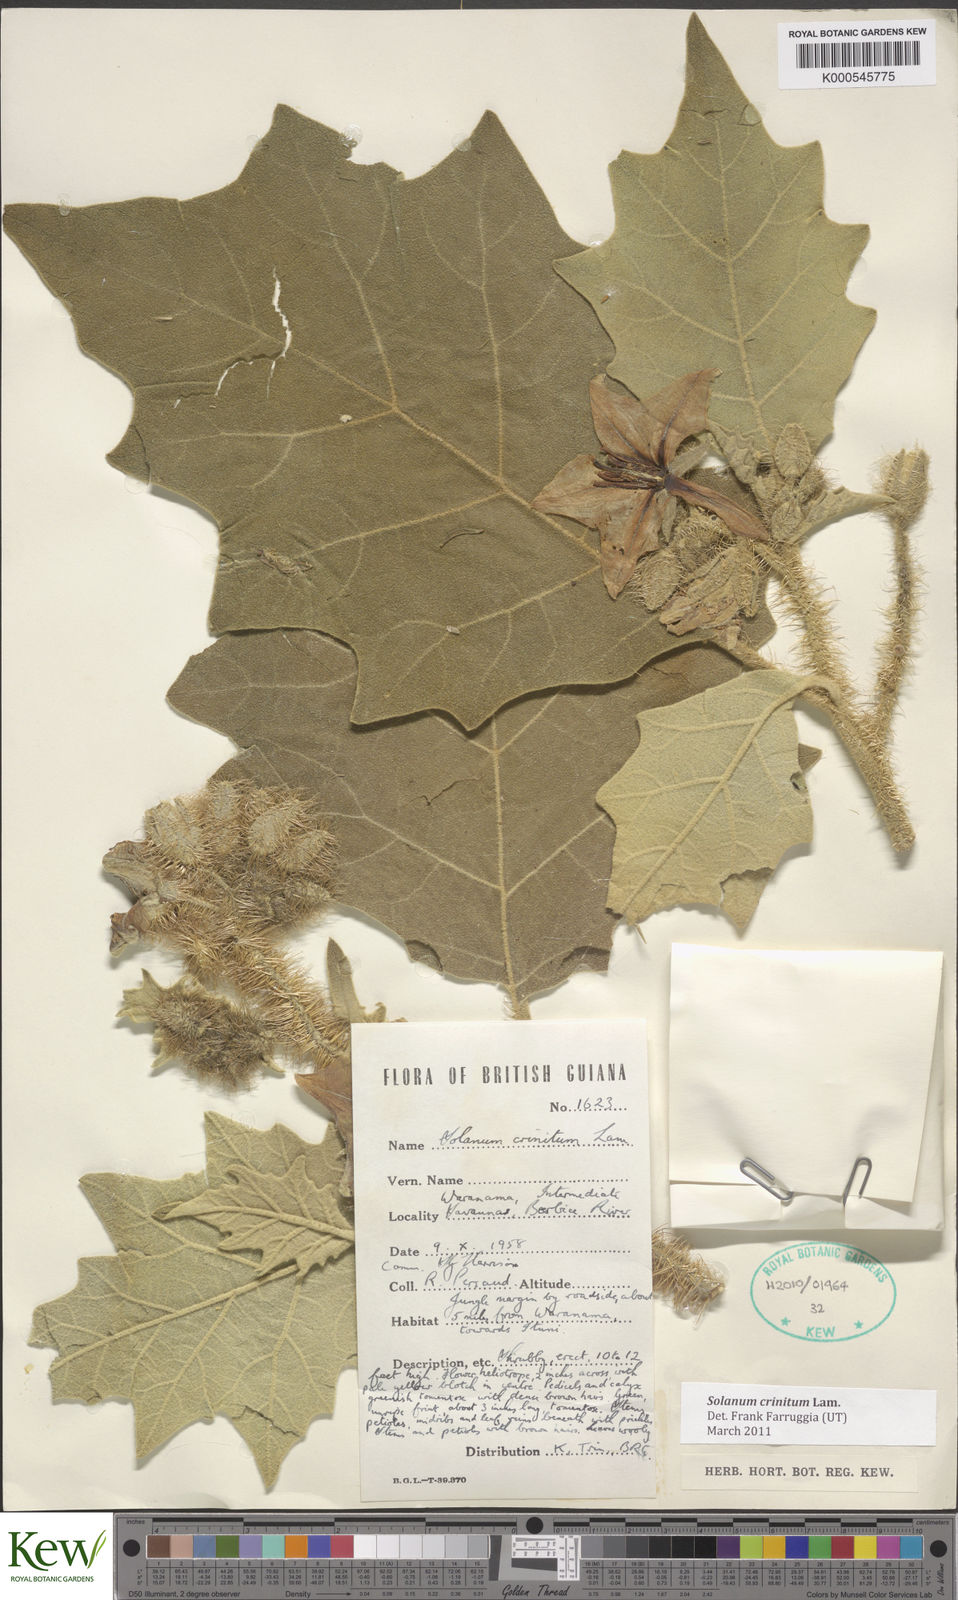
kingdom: Plantae
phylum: Tracheophyta
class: Magnoliopsida
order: Solanales
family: Solanaceae
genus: Solanum
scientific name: Solanum crinitum
